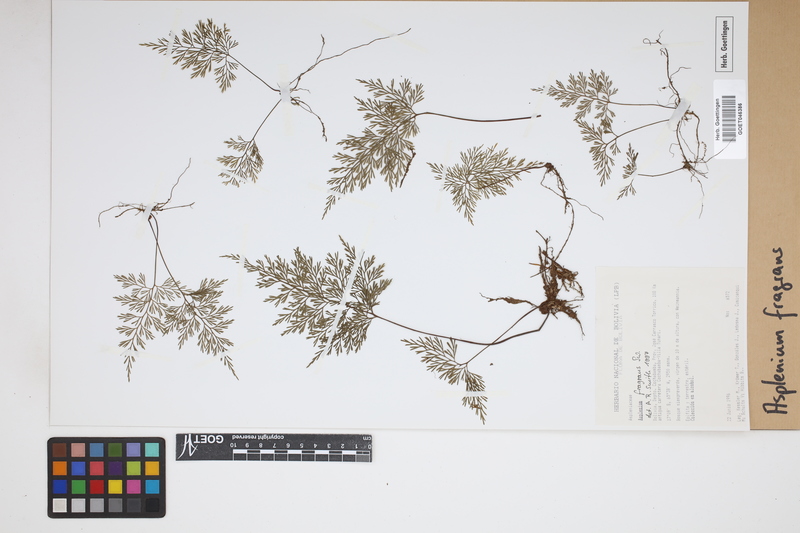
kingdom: Plantae
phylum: Tracheophyta
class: Polypodiopsida
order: Polypodiales
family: Aspleniaceae
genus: Asplenium
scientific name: Asplenium fragrans
